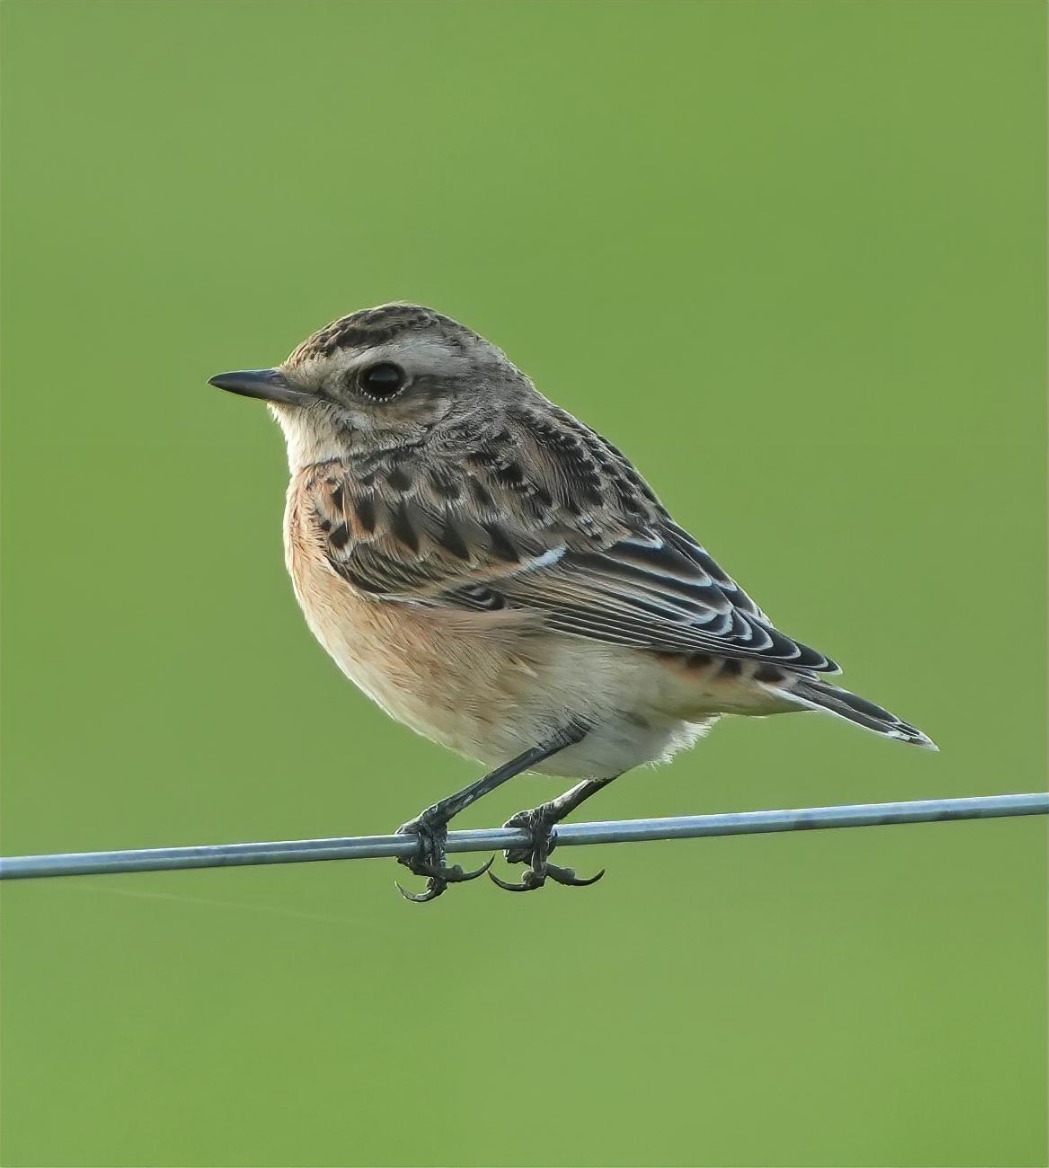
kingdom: Animalia
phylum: Chordata
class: Aves
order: Passeriformes
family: Muscicapidae
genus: Saxicola
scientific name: Saxicola rubetra
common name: Bynkefugl
